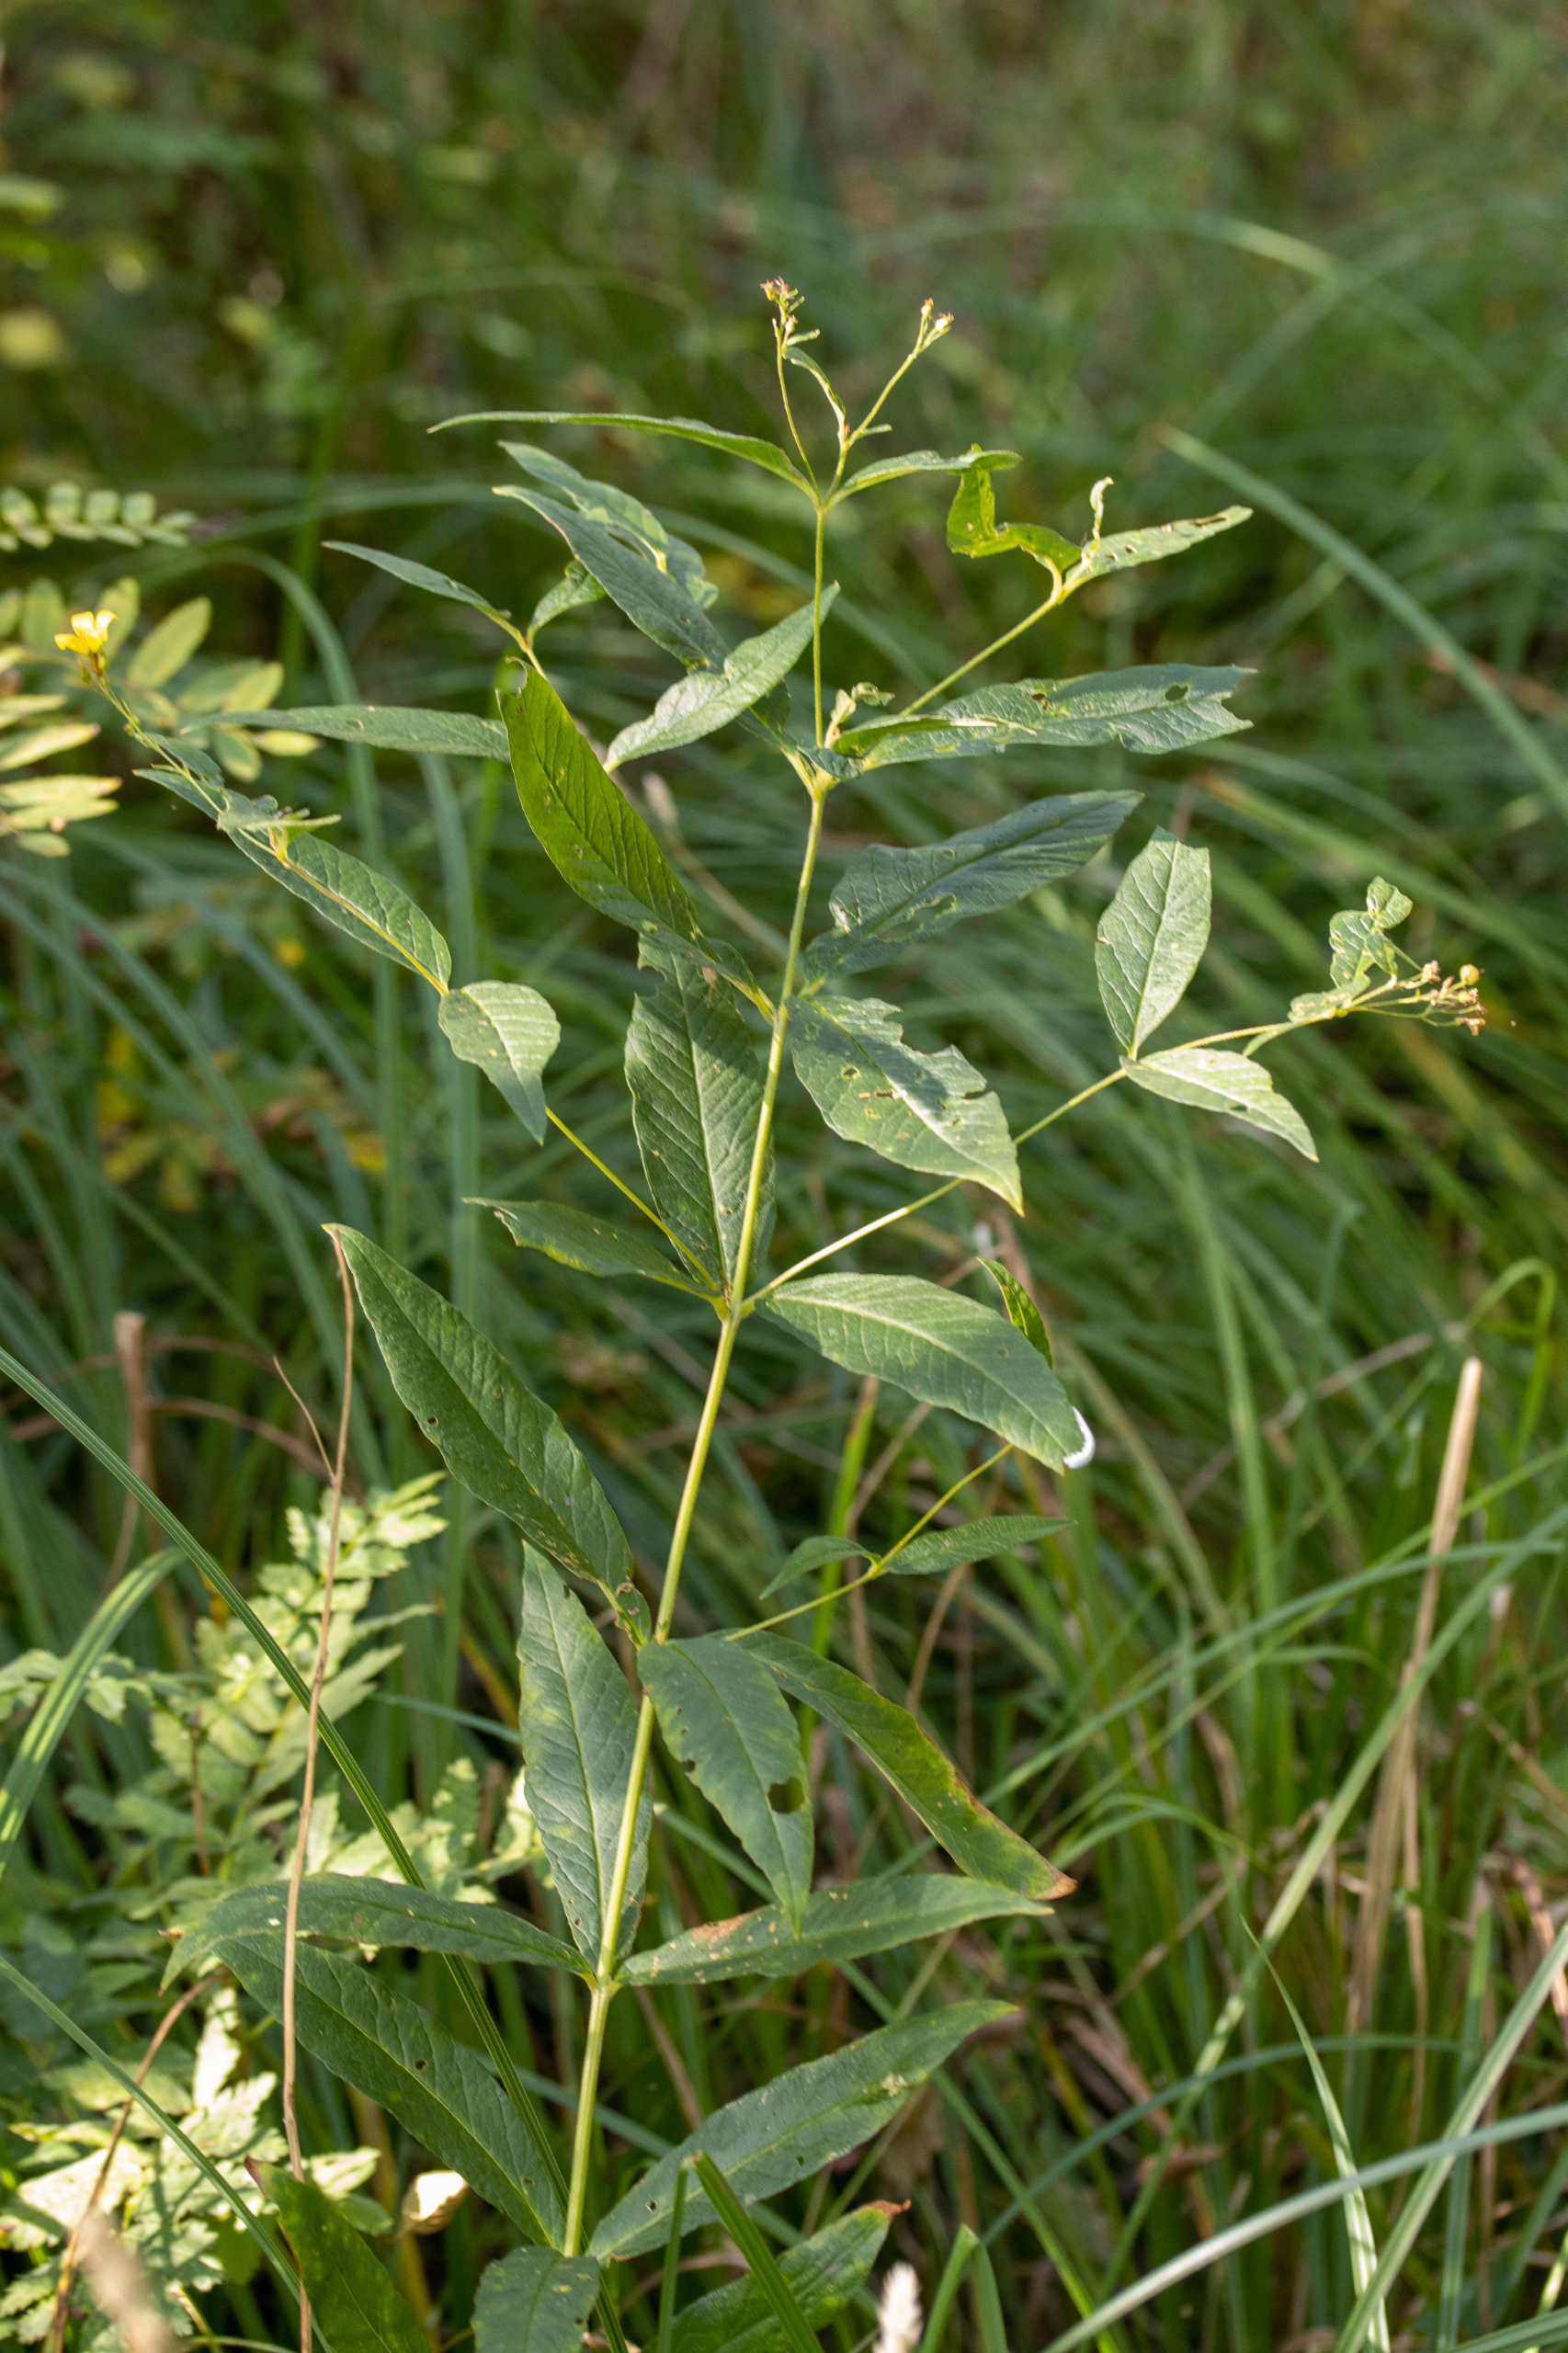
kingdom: Plantae
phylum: Tracheophyta
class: Magnoliopsida
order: Ericales
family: Primulaceae
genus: Lysimachia
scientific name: Lysimachia vulgaris
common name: Almindelig fredløs
